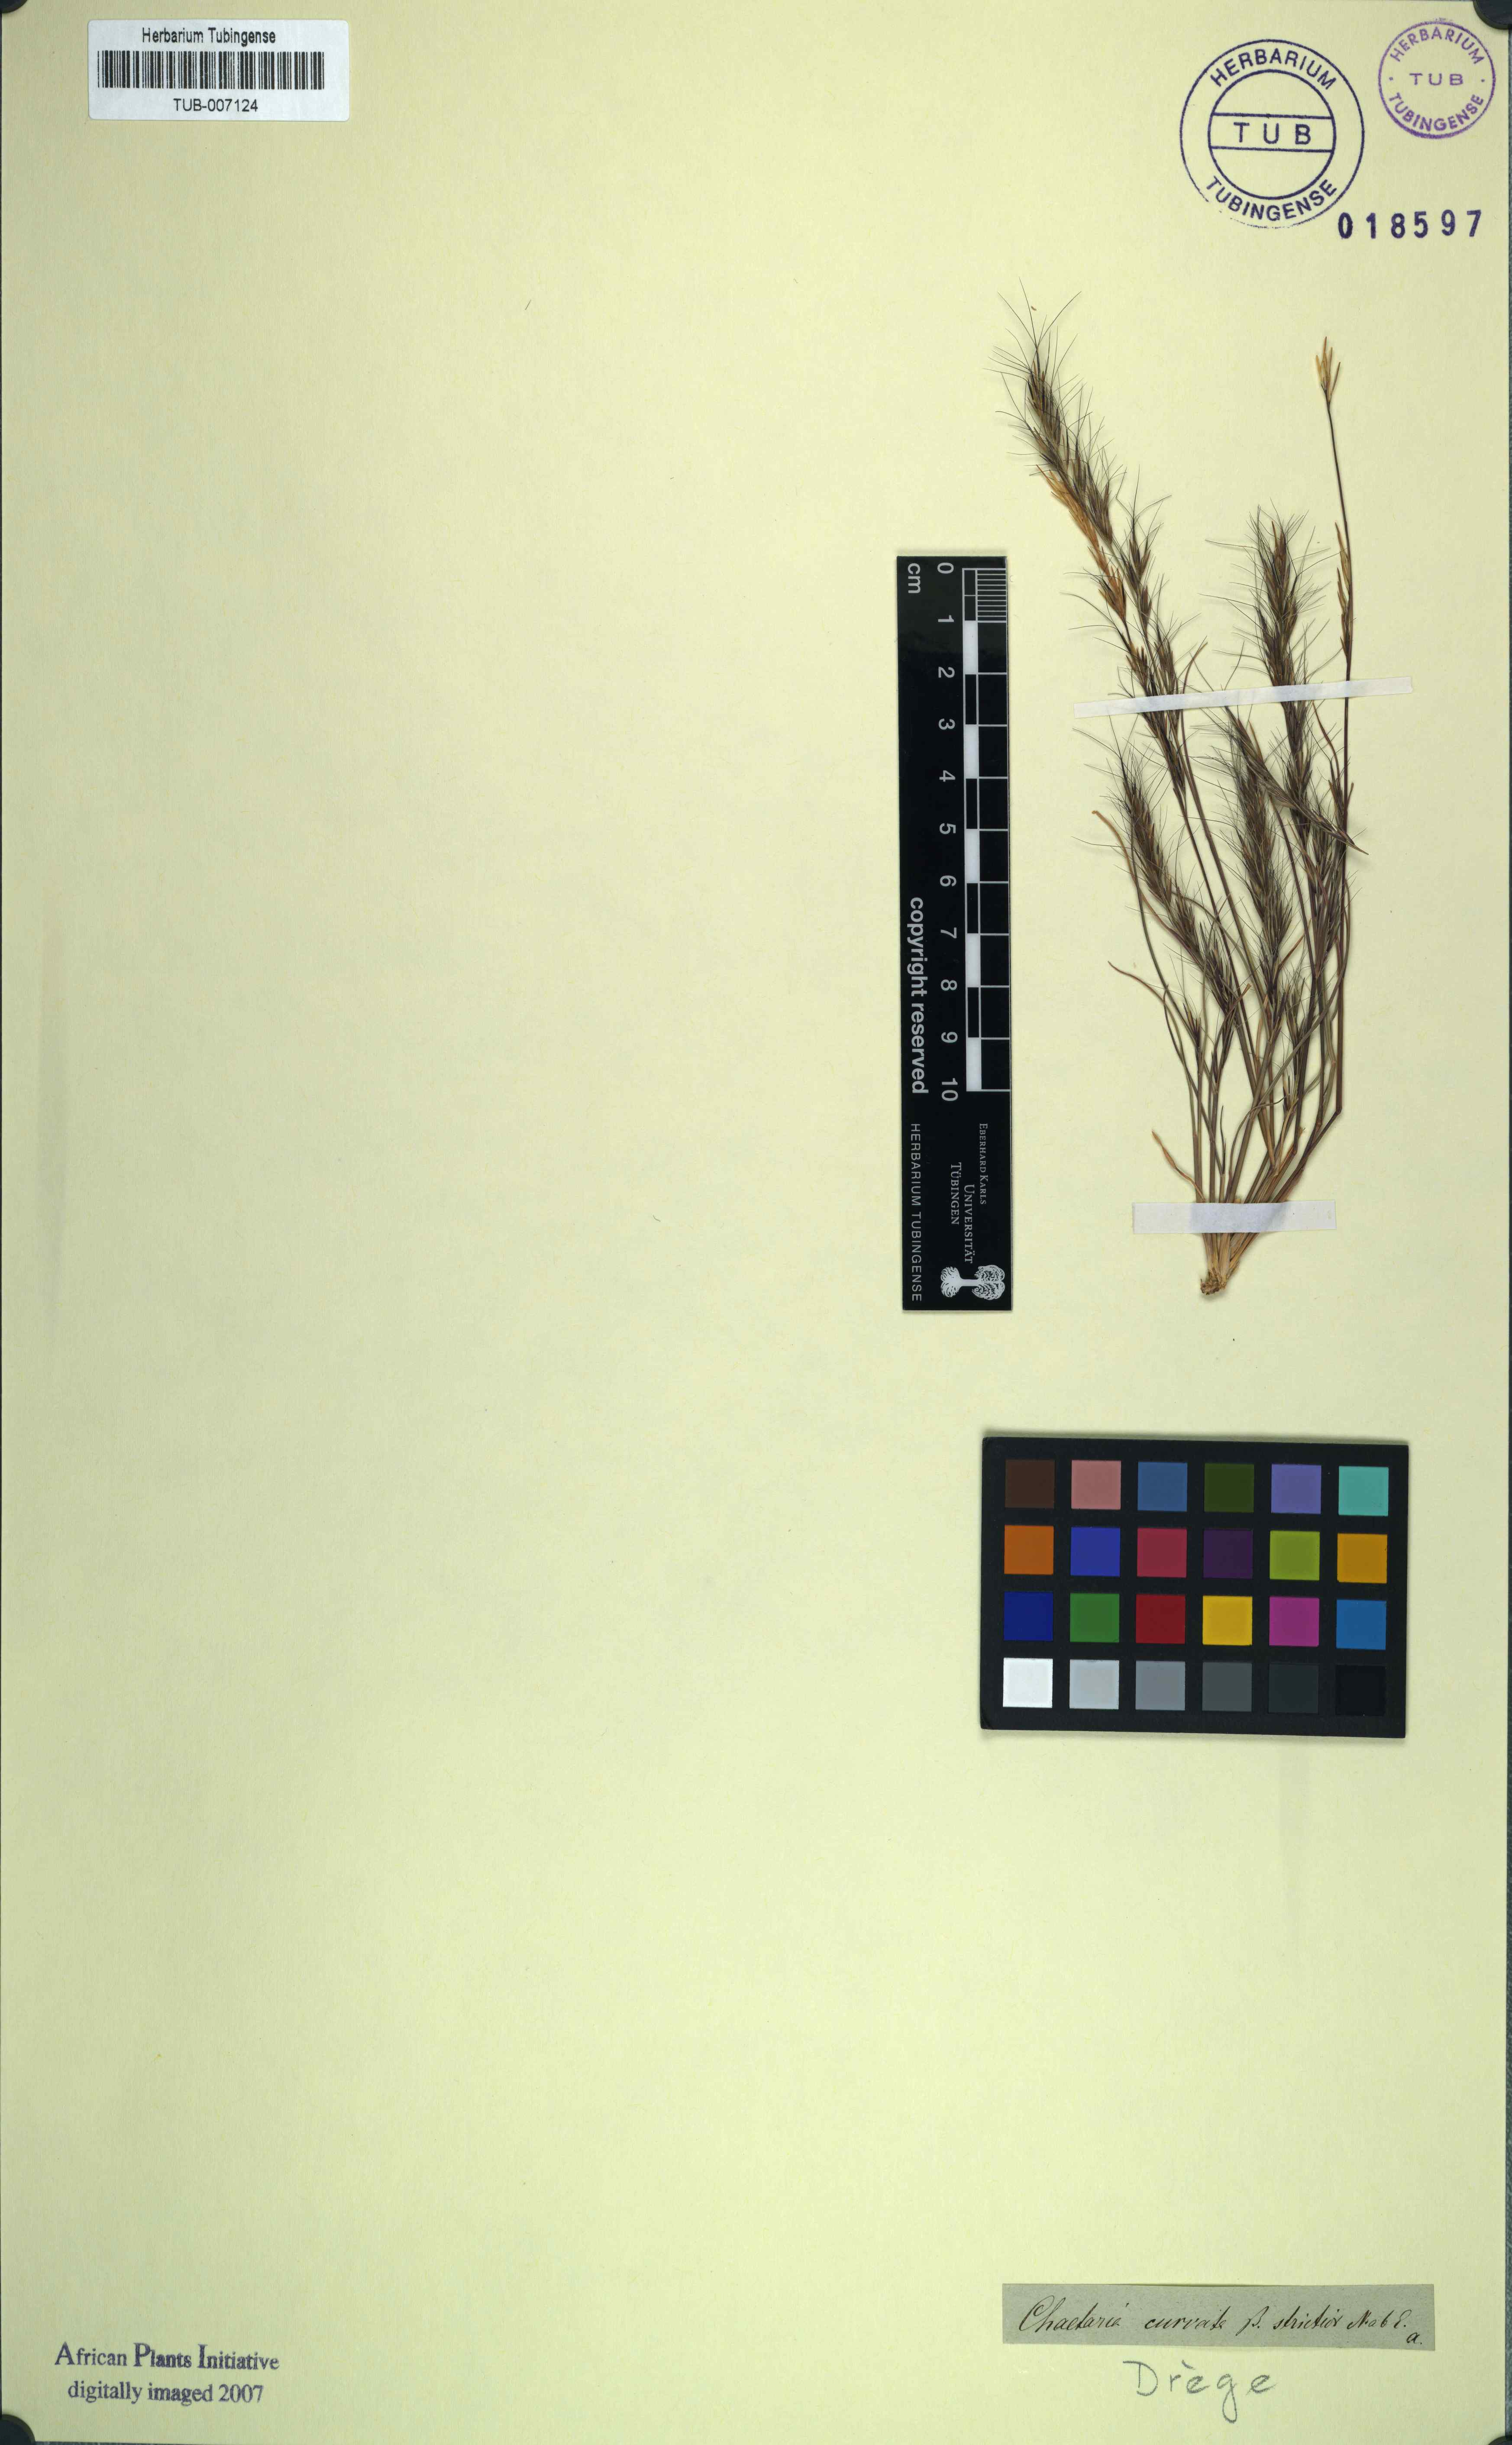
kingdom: Plantae
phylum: Tracheophyta
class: Liliopsida
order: Poales
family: Poaceae
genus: Aristida
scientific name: Aristida adscensionis
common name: Sixweeks threeawn
